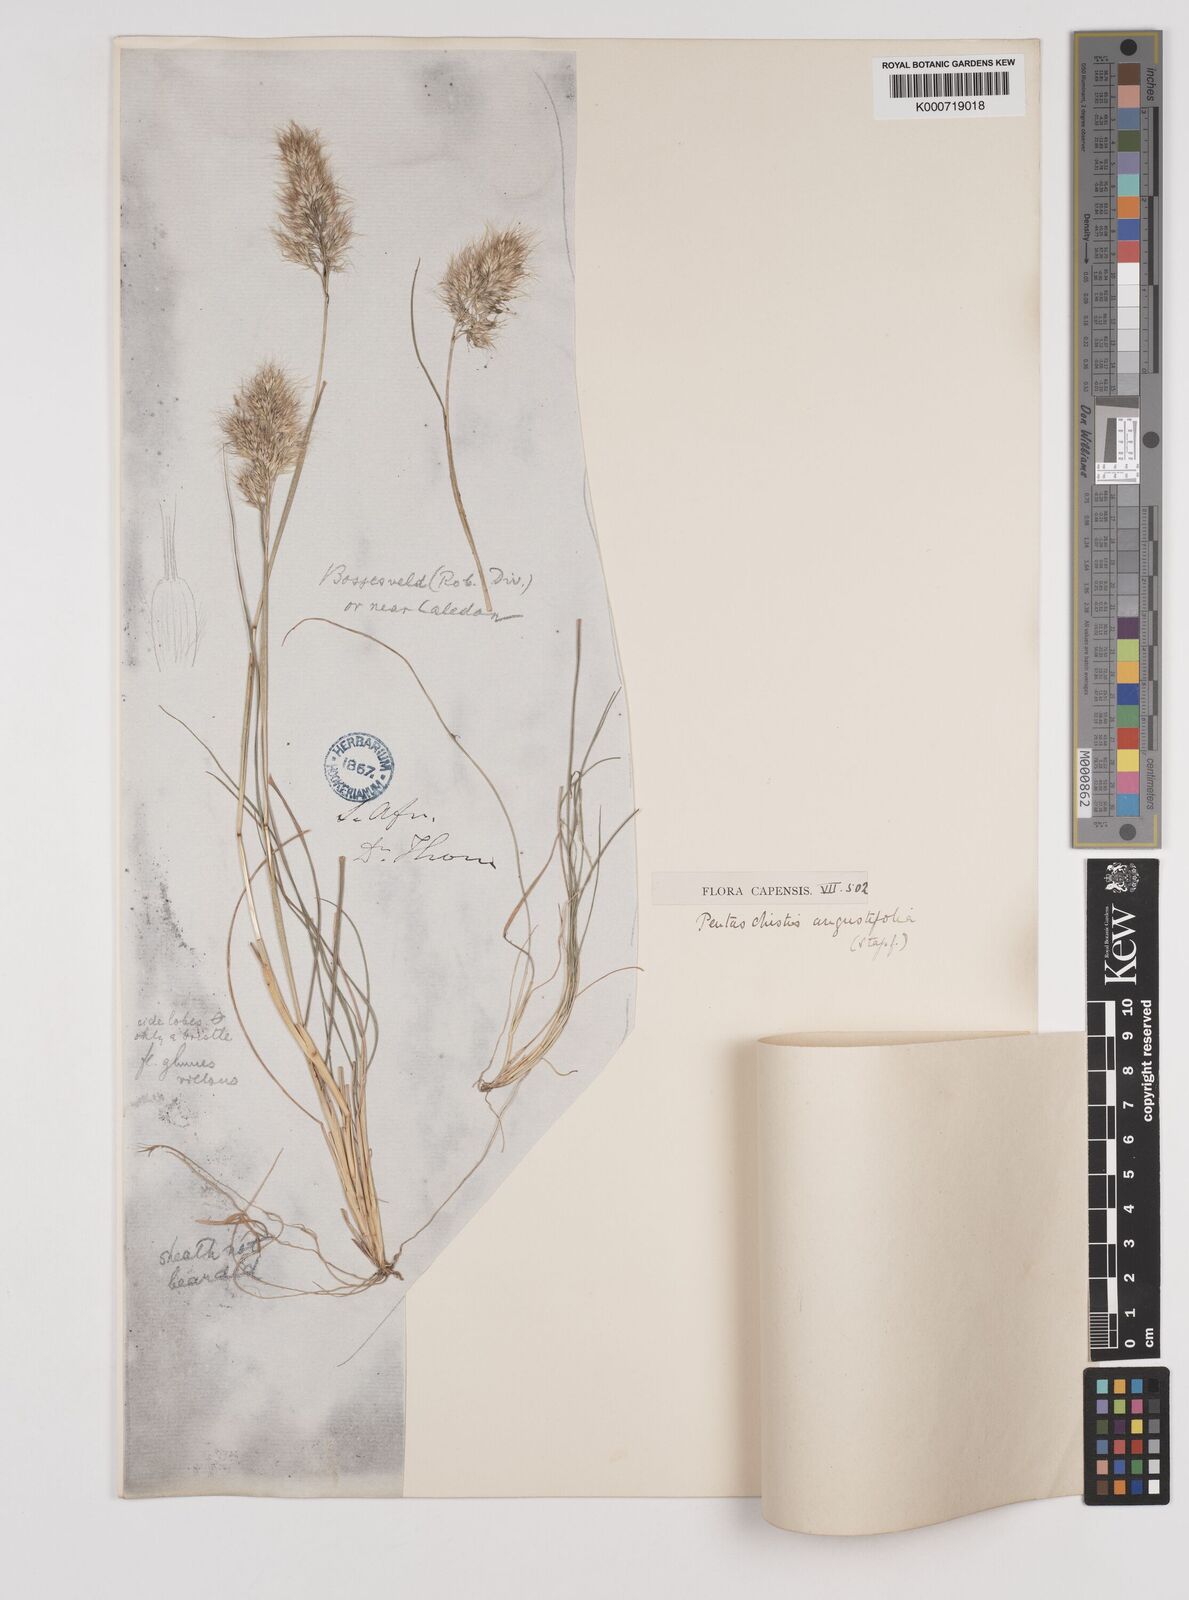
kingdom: Plantae
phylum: Tracheophyta
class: Liliopsida
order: Poales
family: Poaceae
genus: Pentameris
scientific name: Pentameris pallida
